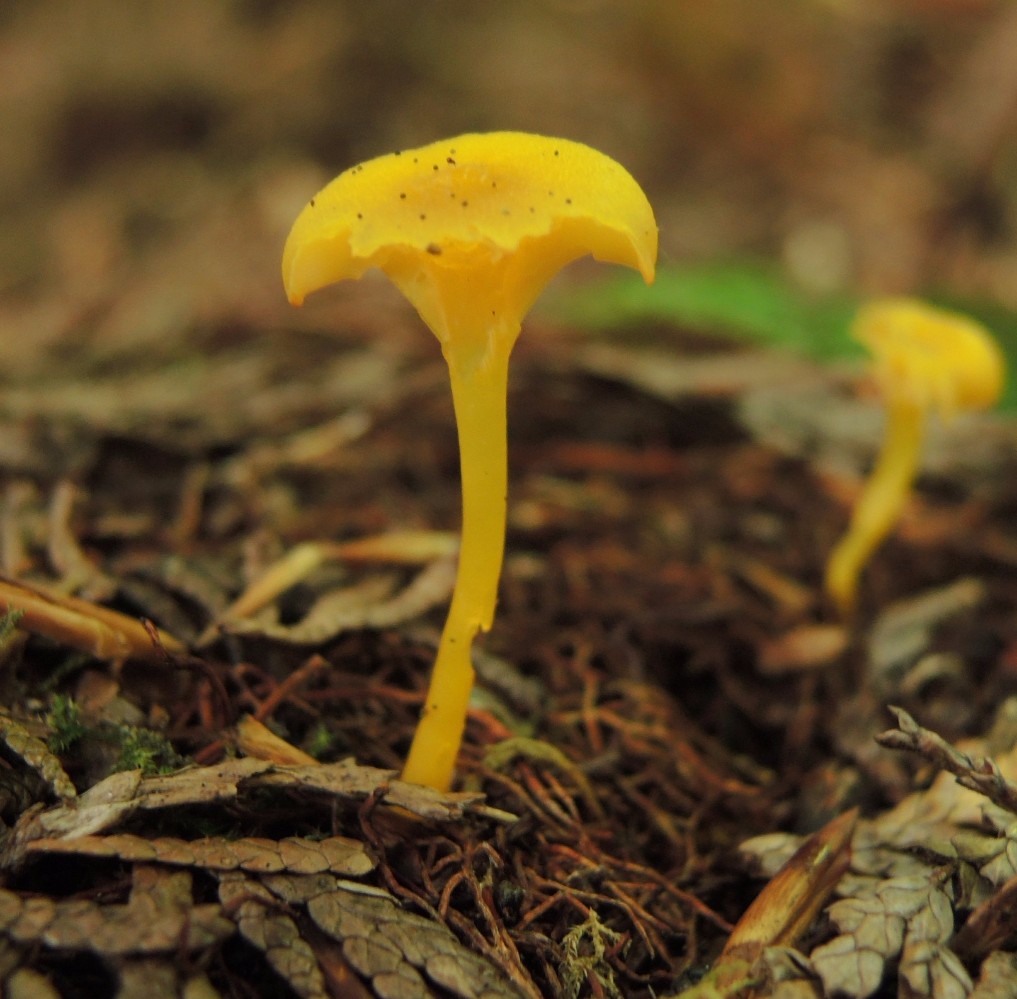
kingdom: Fungi
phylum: Basidiomycota
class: Agaricomycetes
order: Agaricales
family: Hygrophoraceae
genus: Gloioxanthomyces
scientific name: Gloioxanthomyces vitellinus
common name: kromgul vokshat
